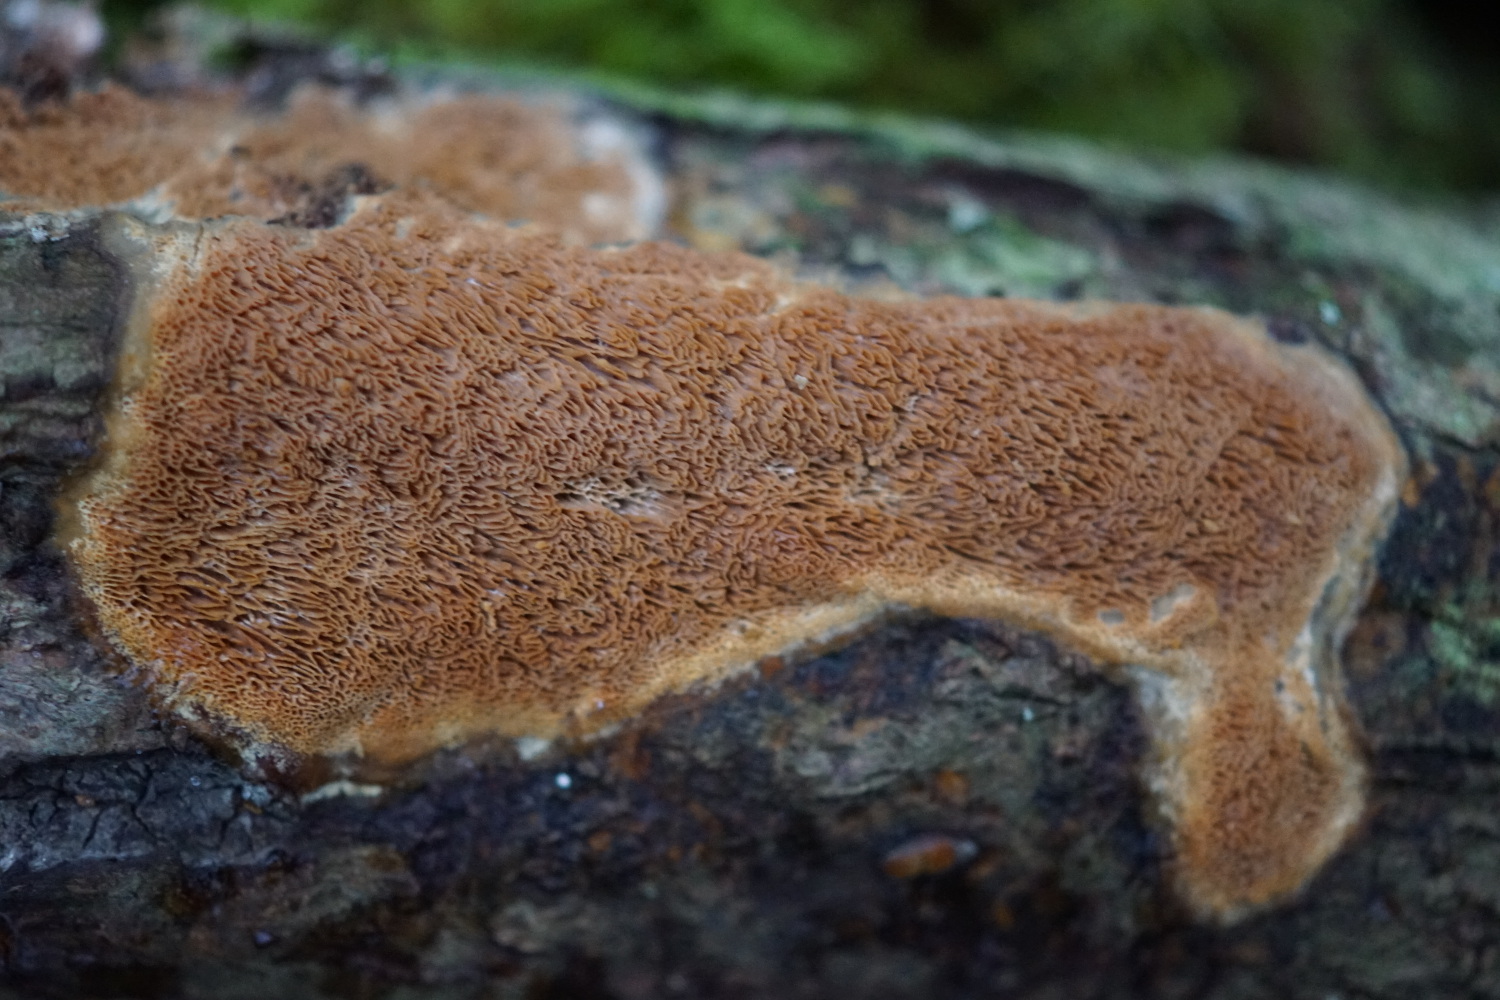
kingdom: Fungi
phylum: Basidiomycota
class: Agaricomycetes
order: Polyporales
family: Irpicaceae
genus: Resiniporus
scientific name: Resiniporus resinascens
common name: trist pastelporesvamp
